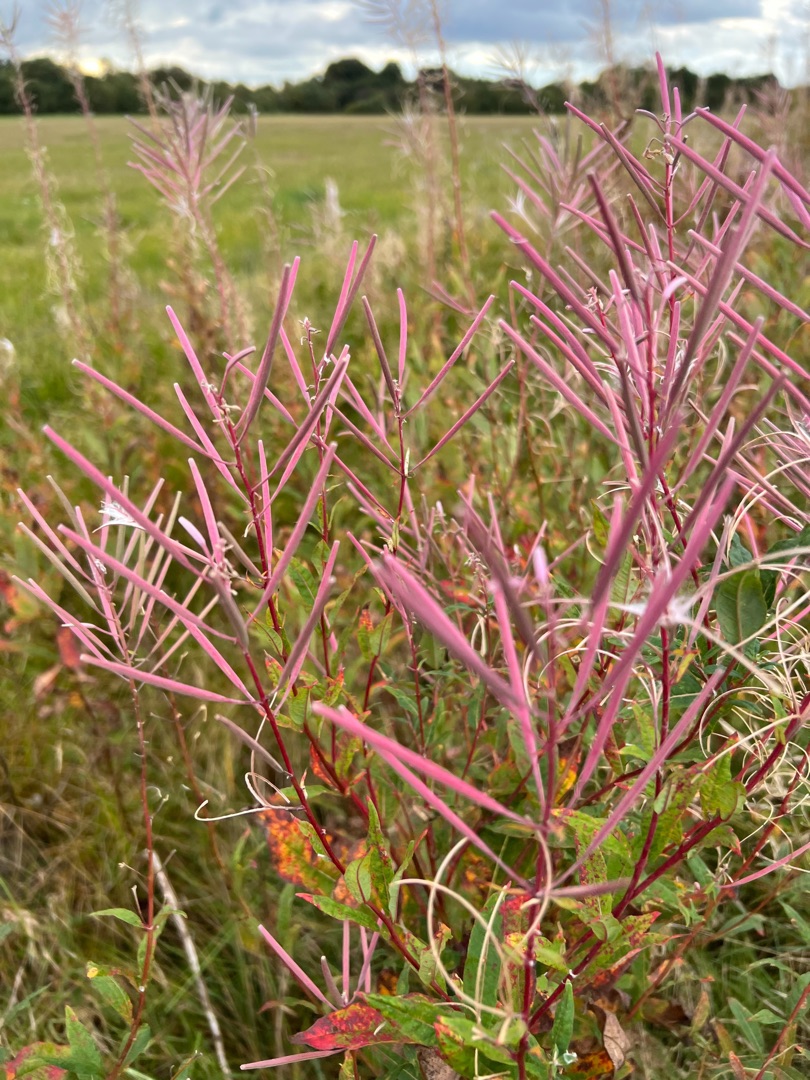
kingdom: Plantae
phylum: Tracheophyta
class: Magnoliopsida
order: Myrtales
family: Onagraceae
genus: Chamaenerion
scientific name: Chamaenerion angustifolium
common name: Gederams
